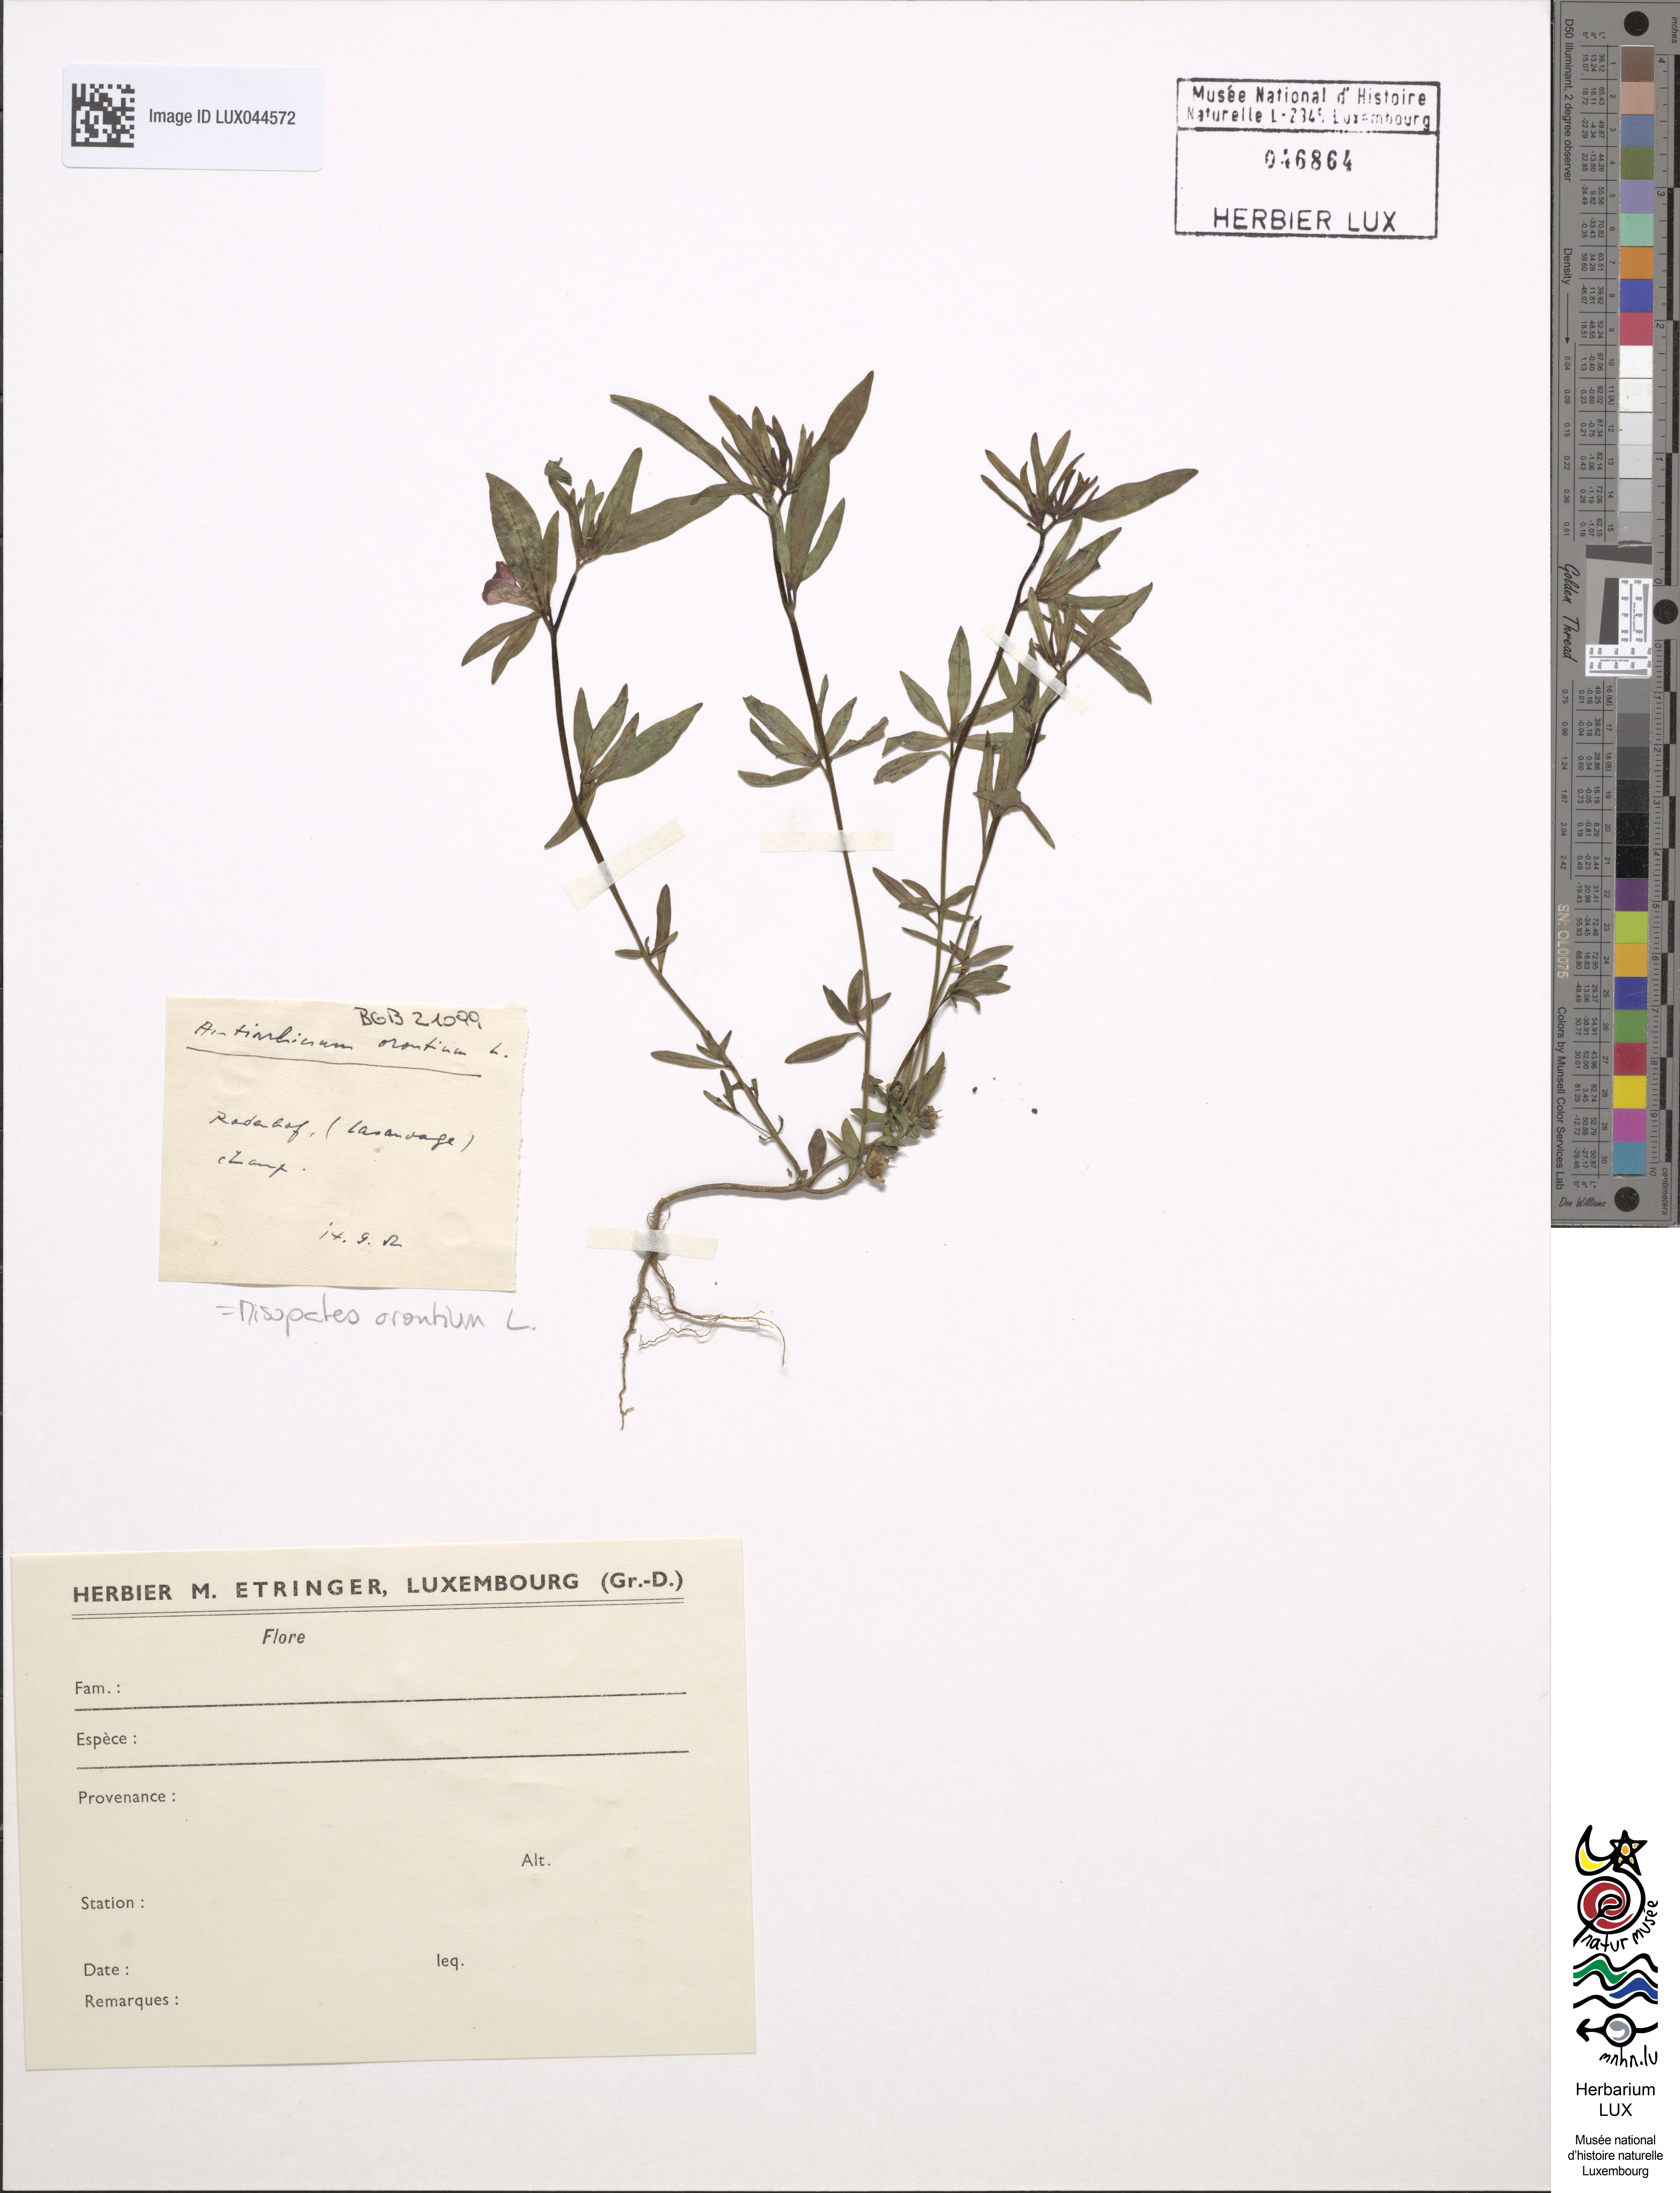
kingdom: Plantae
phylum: Tracheophyta
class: Magnoliopsida
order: Lamiales
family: Plantaginaceae
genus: Misopates
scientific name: Misopates orontium
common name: Weasel's-snout
